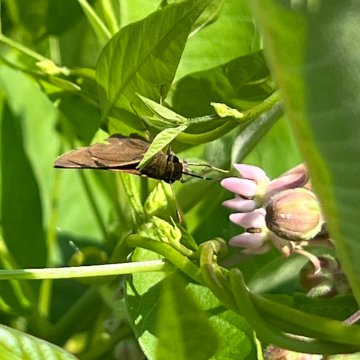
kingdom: Animalia
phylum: Arthropoda
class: Insecta
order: Lepidoptera
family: Hesperiidae
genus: Euphyes
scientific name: Euphyes vestris
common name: Dun Skipper
